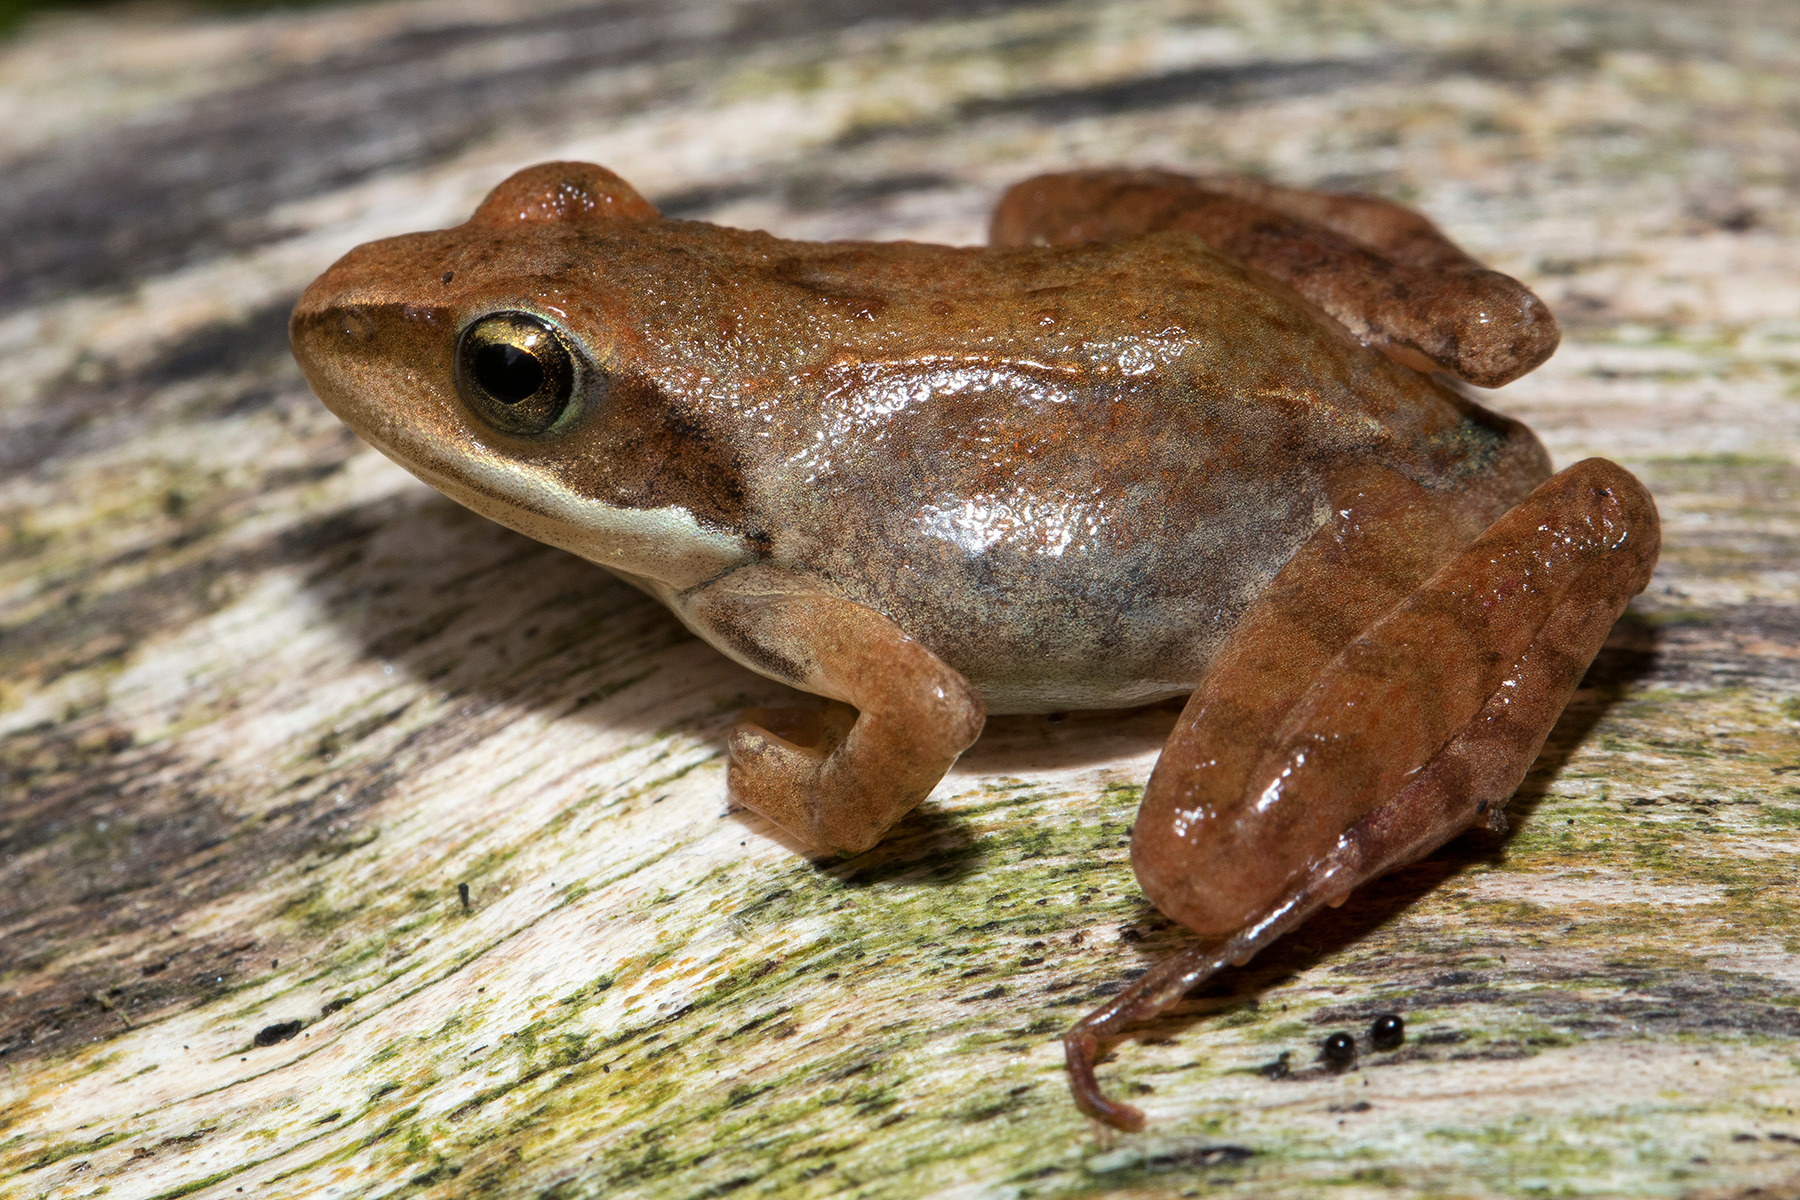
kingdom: Animalia
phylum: Chordata
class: Amphibia
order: Anura
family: Ranidae
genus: Rana
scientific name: Rana temporaria
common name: Butsnudet frø
